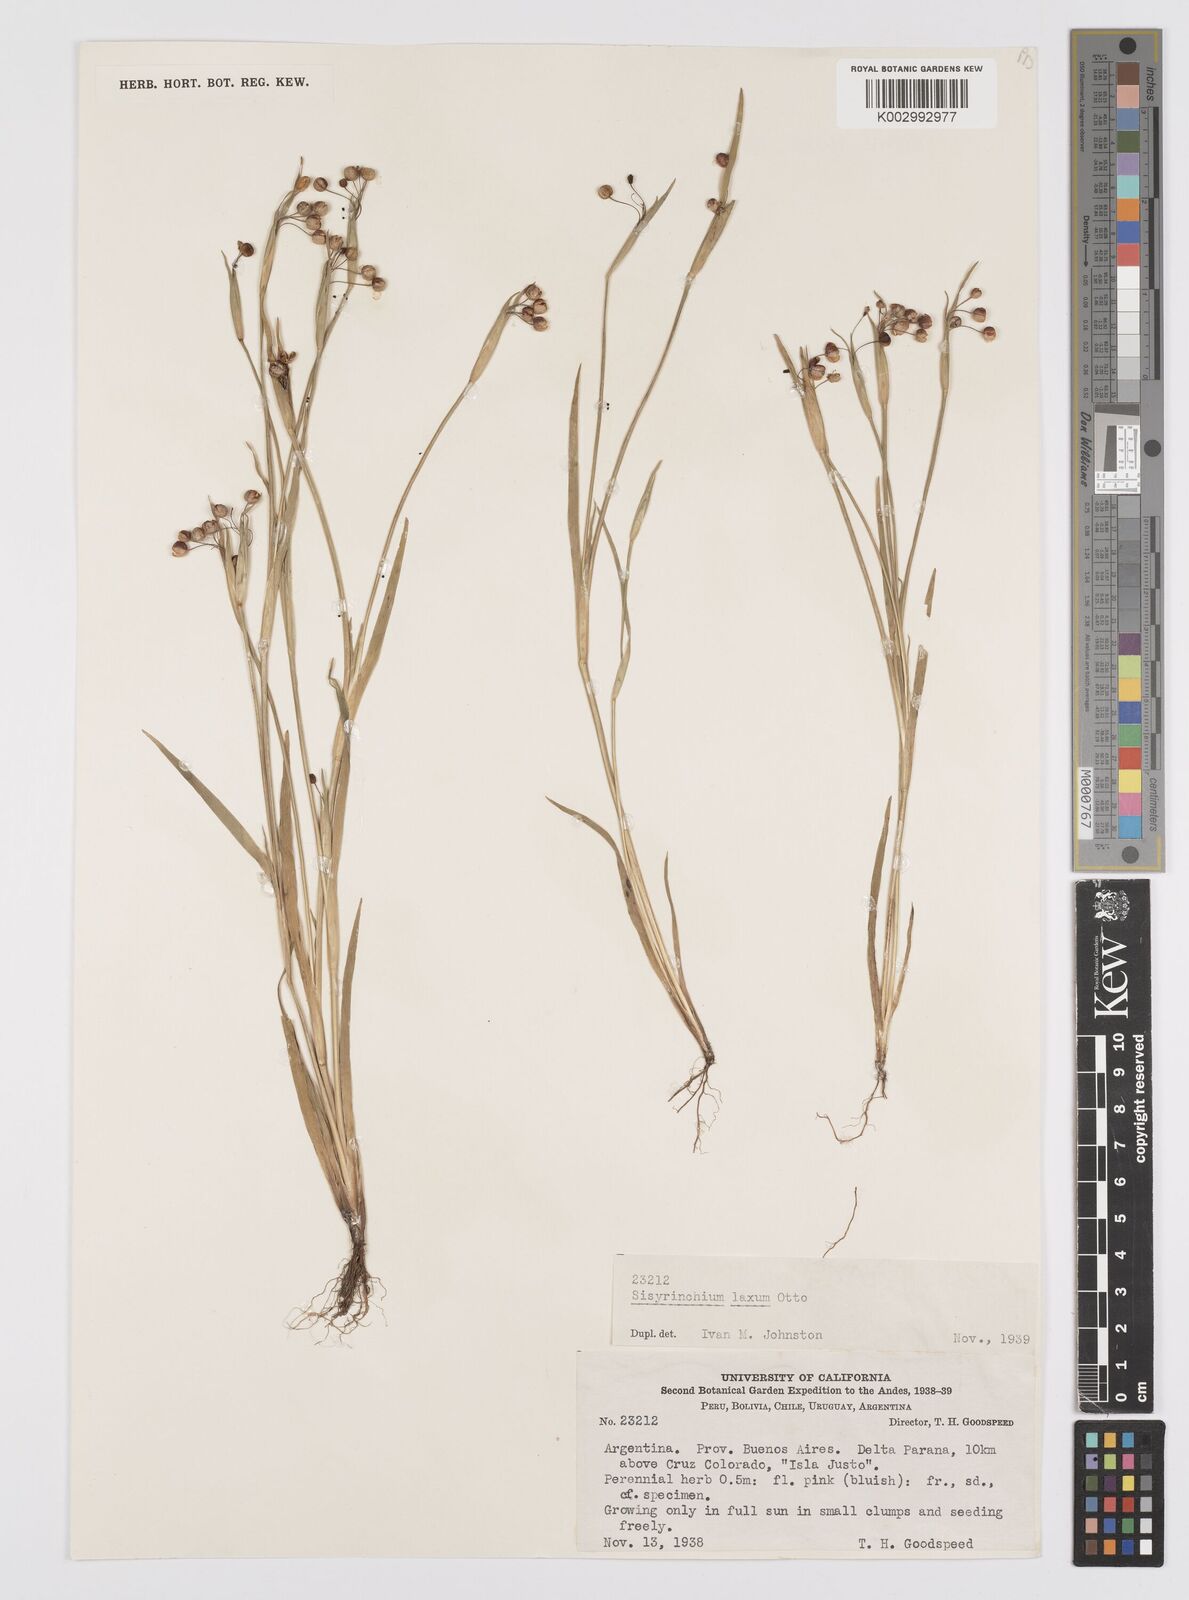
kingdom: Plantae
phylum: Tracheophyta
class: Liliopsida
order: Asparagales
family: Iridaceae
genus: Sisyrinchium
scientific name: Sisyrinchium laxum
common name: Veined yellow-eyed-grass
